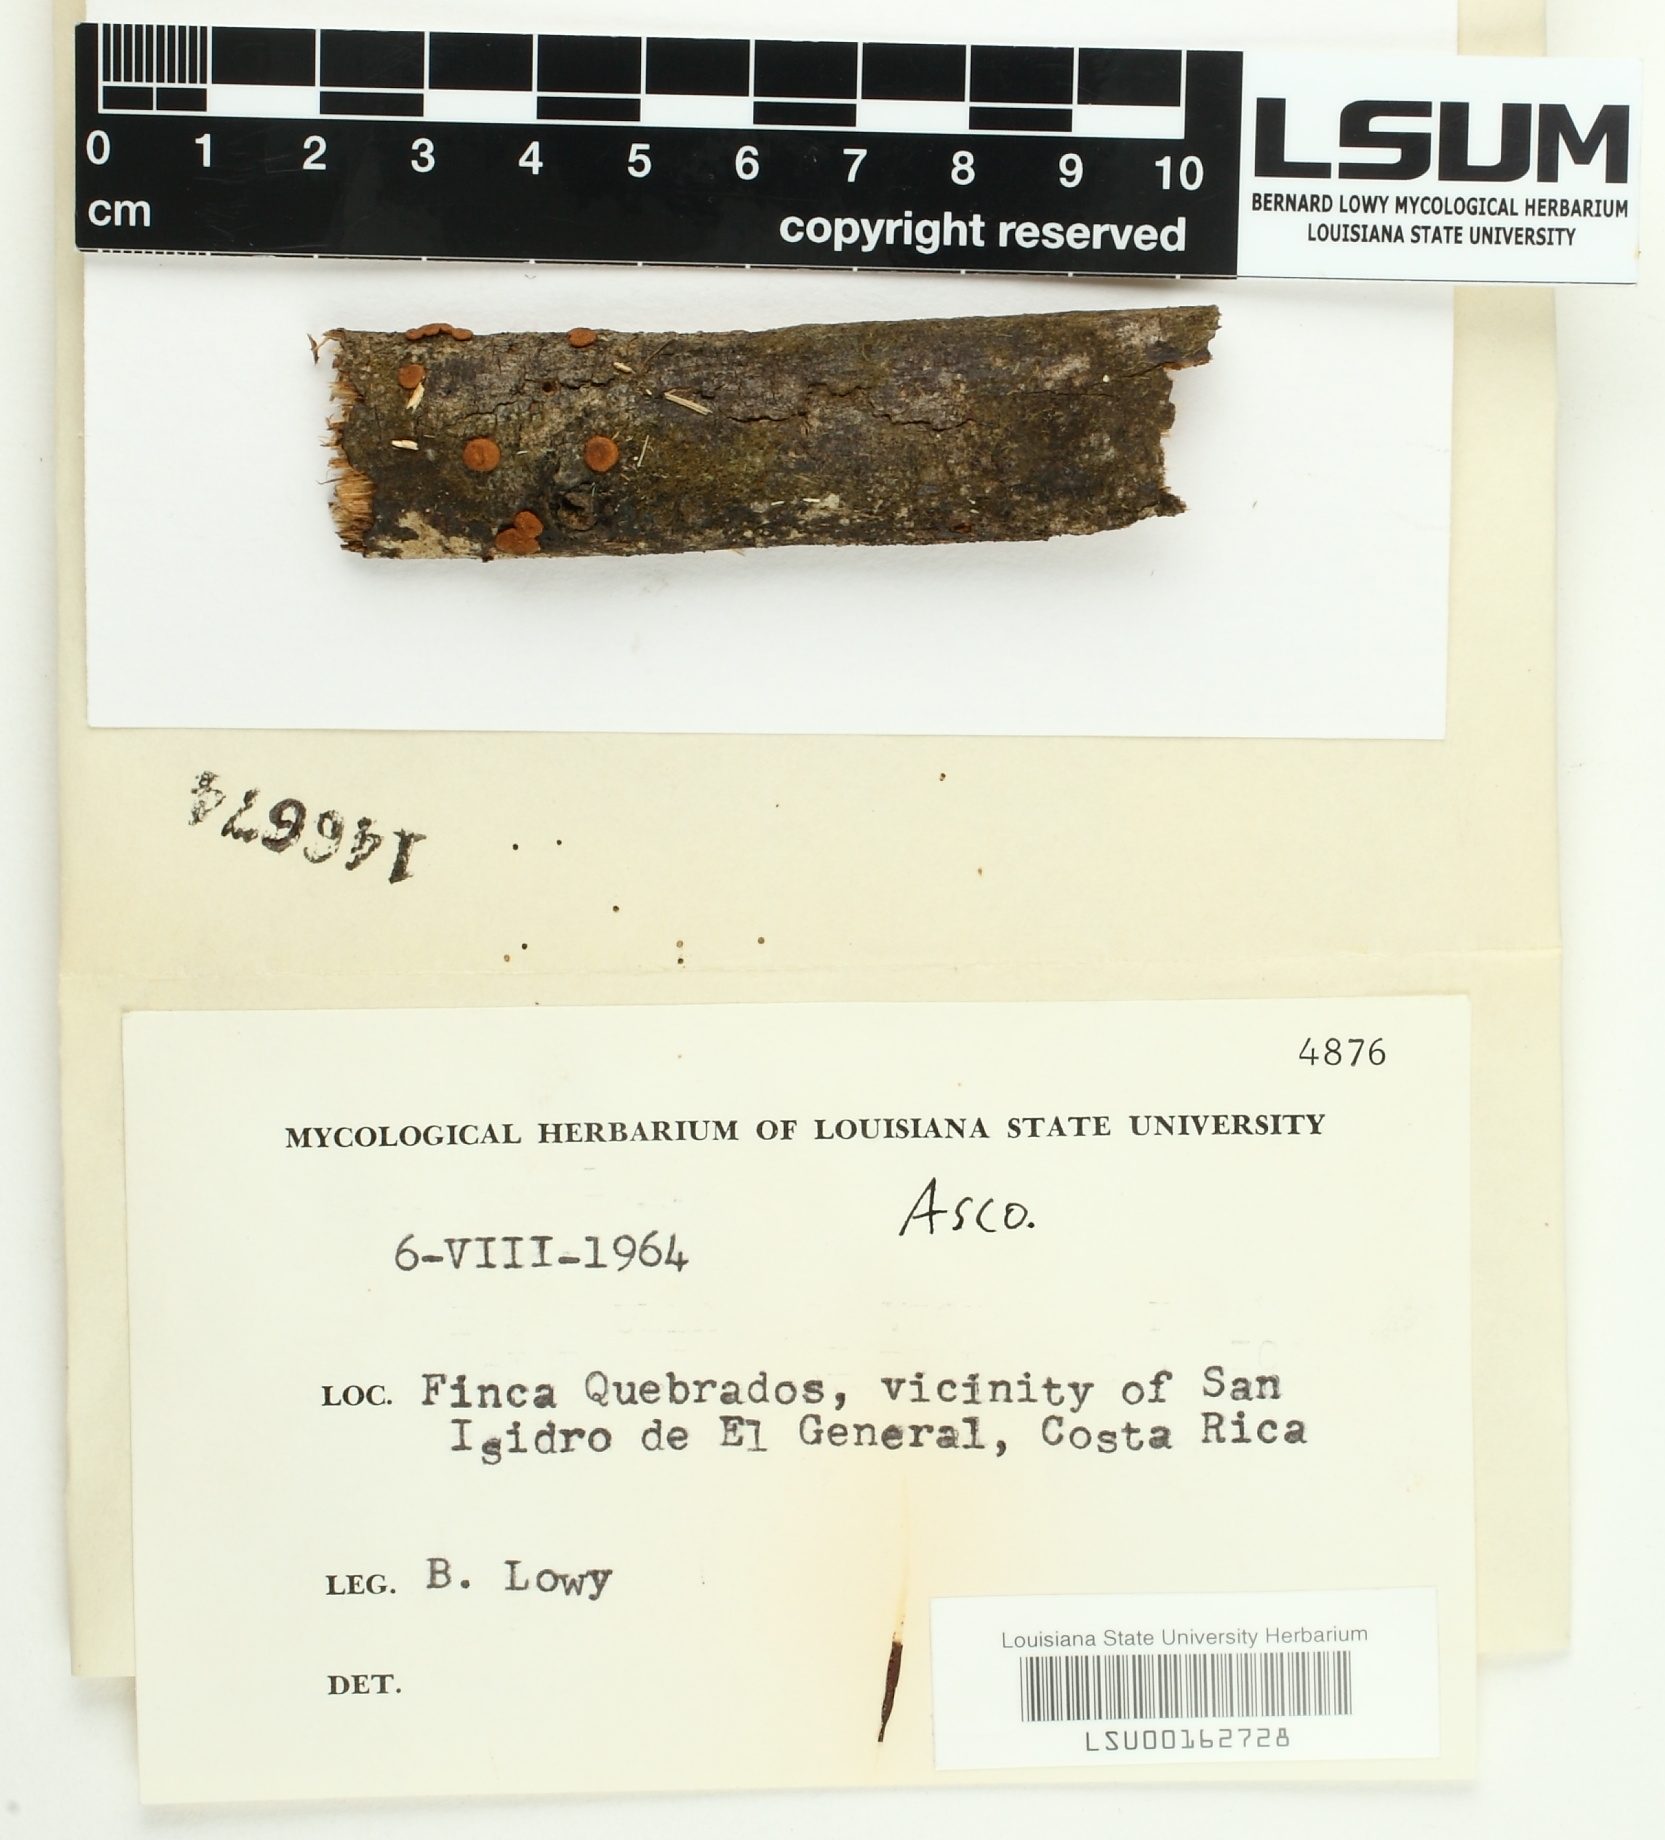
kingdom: Fungi
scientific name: Fungi
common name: Fungi
